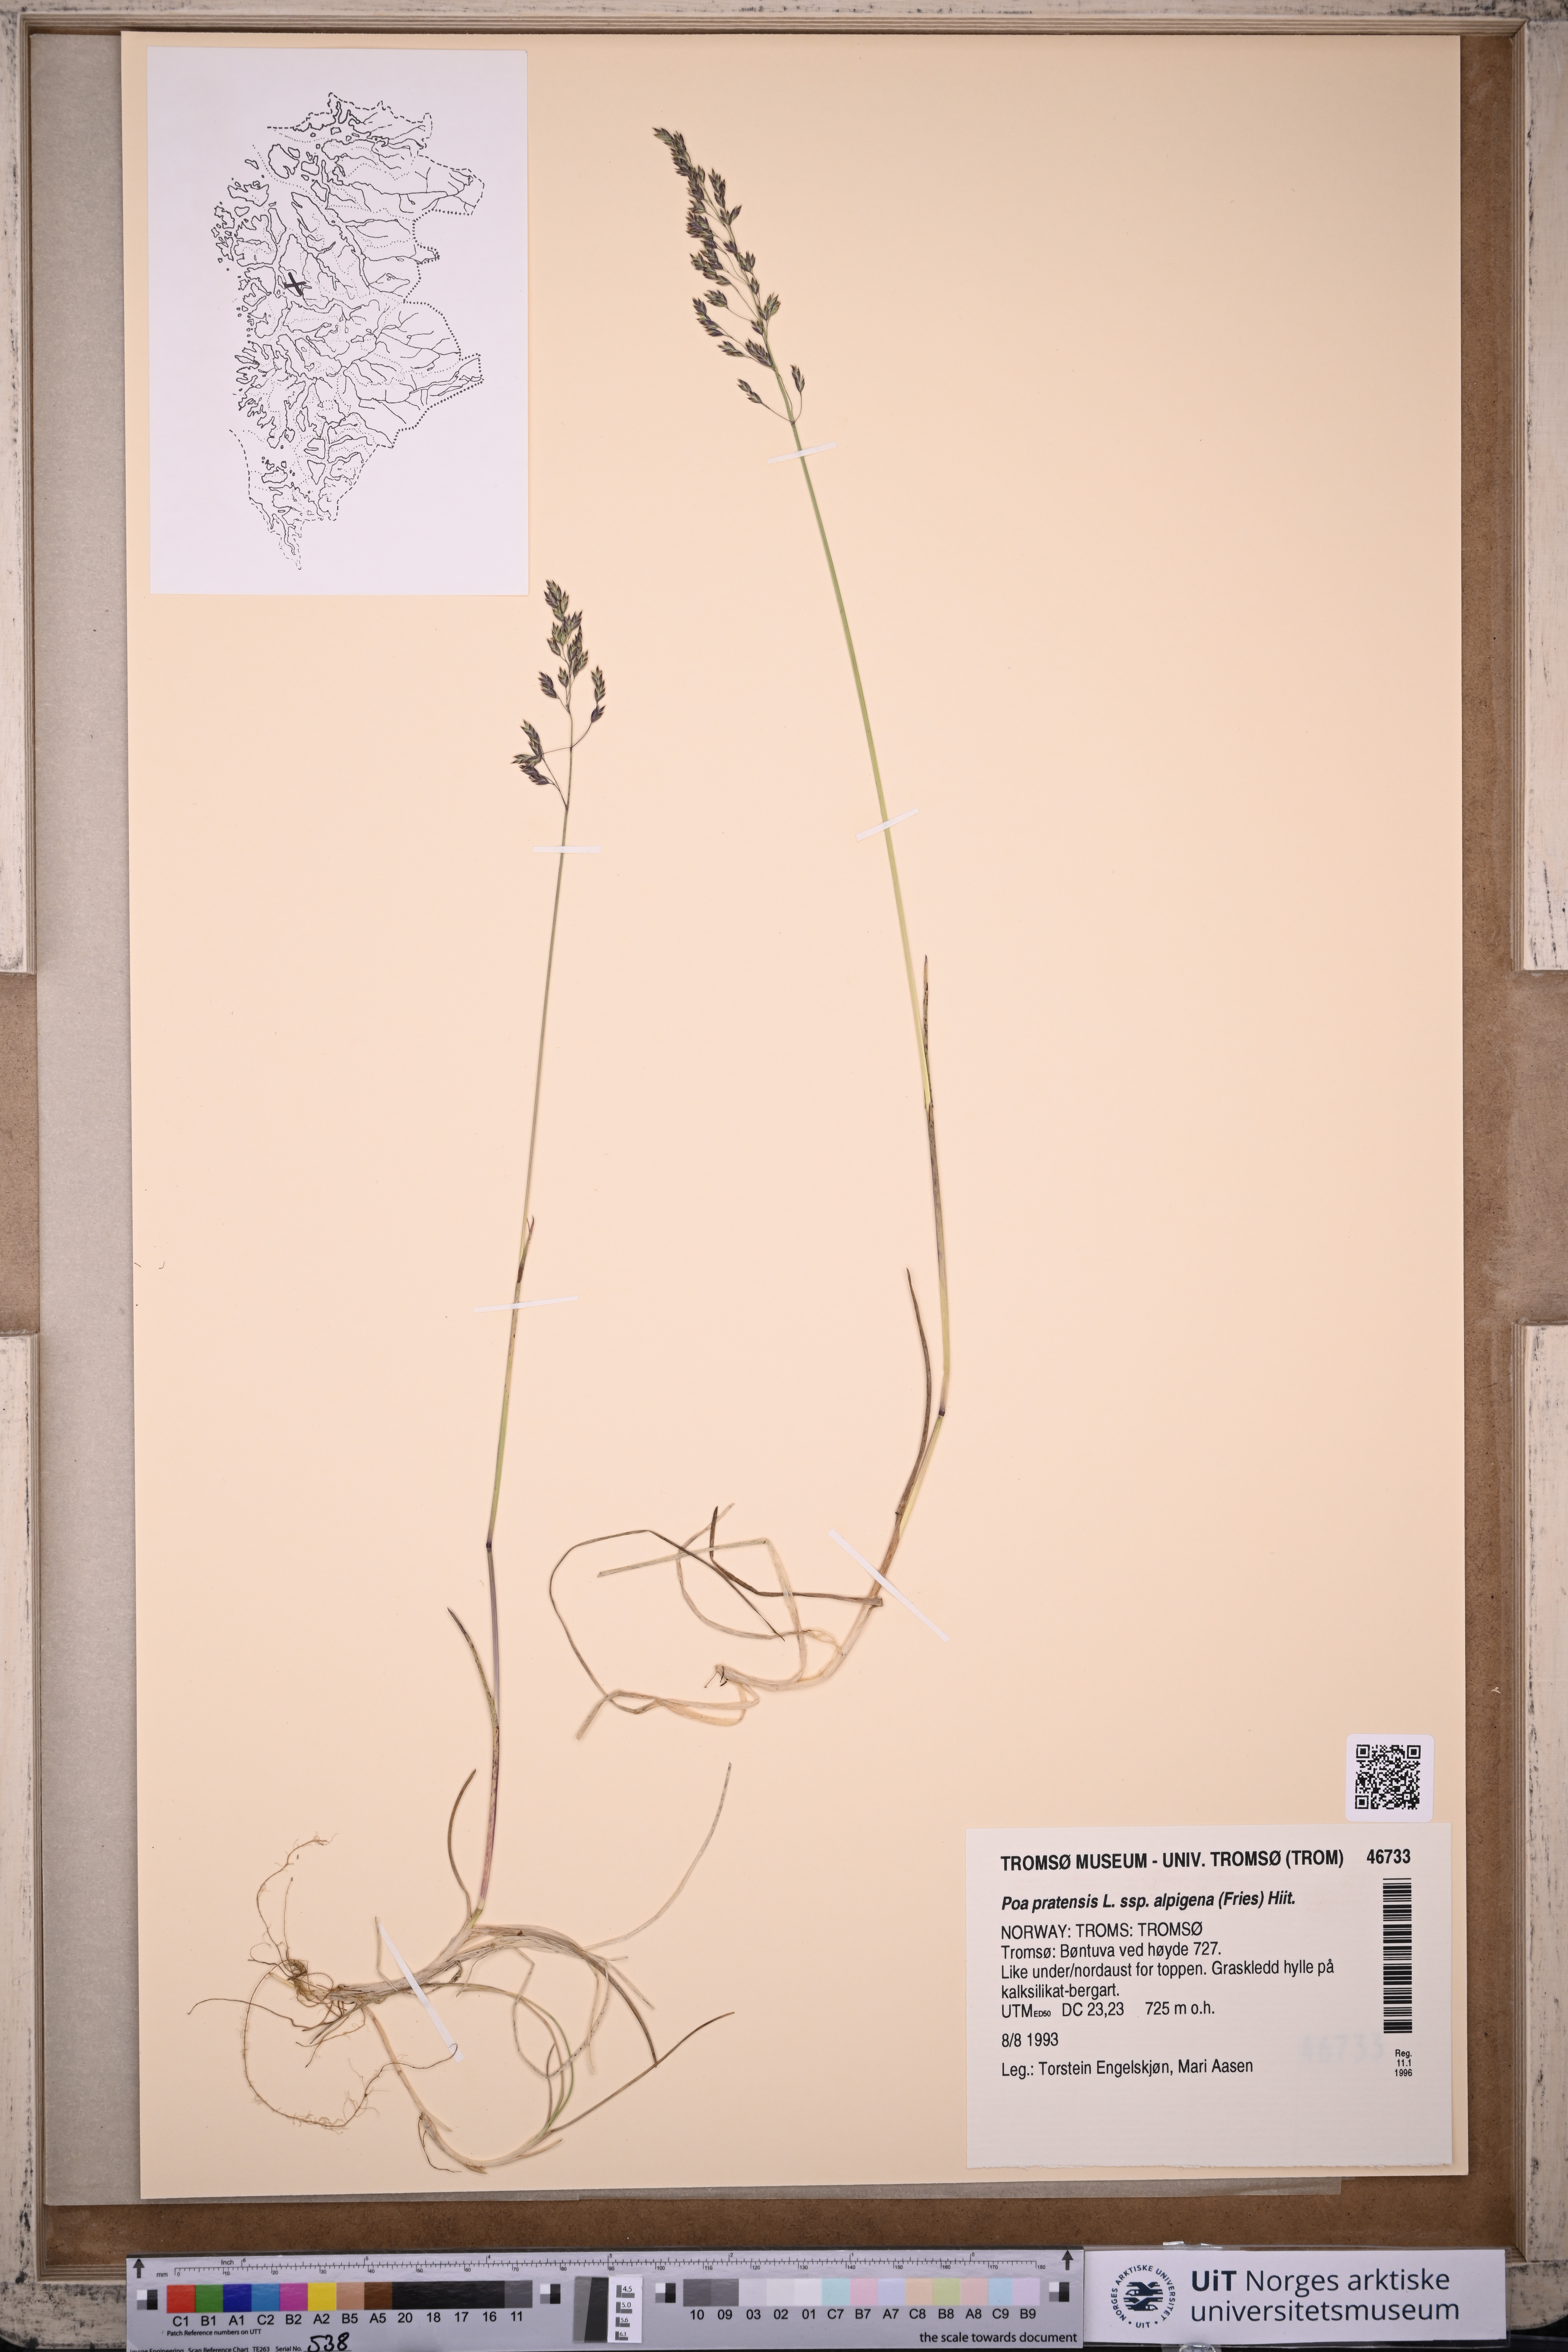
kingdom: Plantae
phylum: Tracheophyta
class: Liliopsida
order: Poales
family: Poaceae
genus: Poa
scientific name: Poa alpigena
